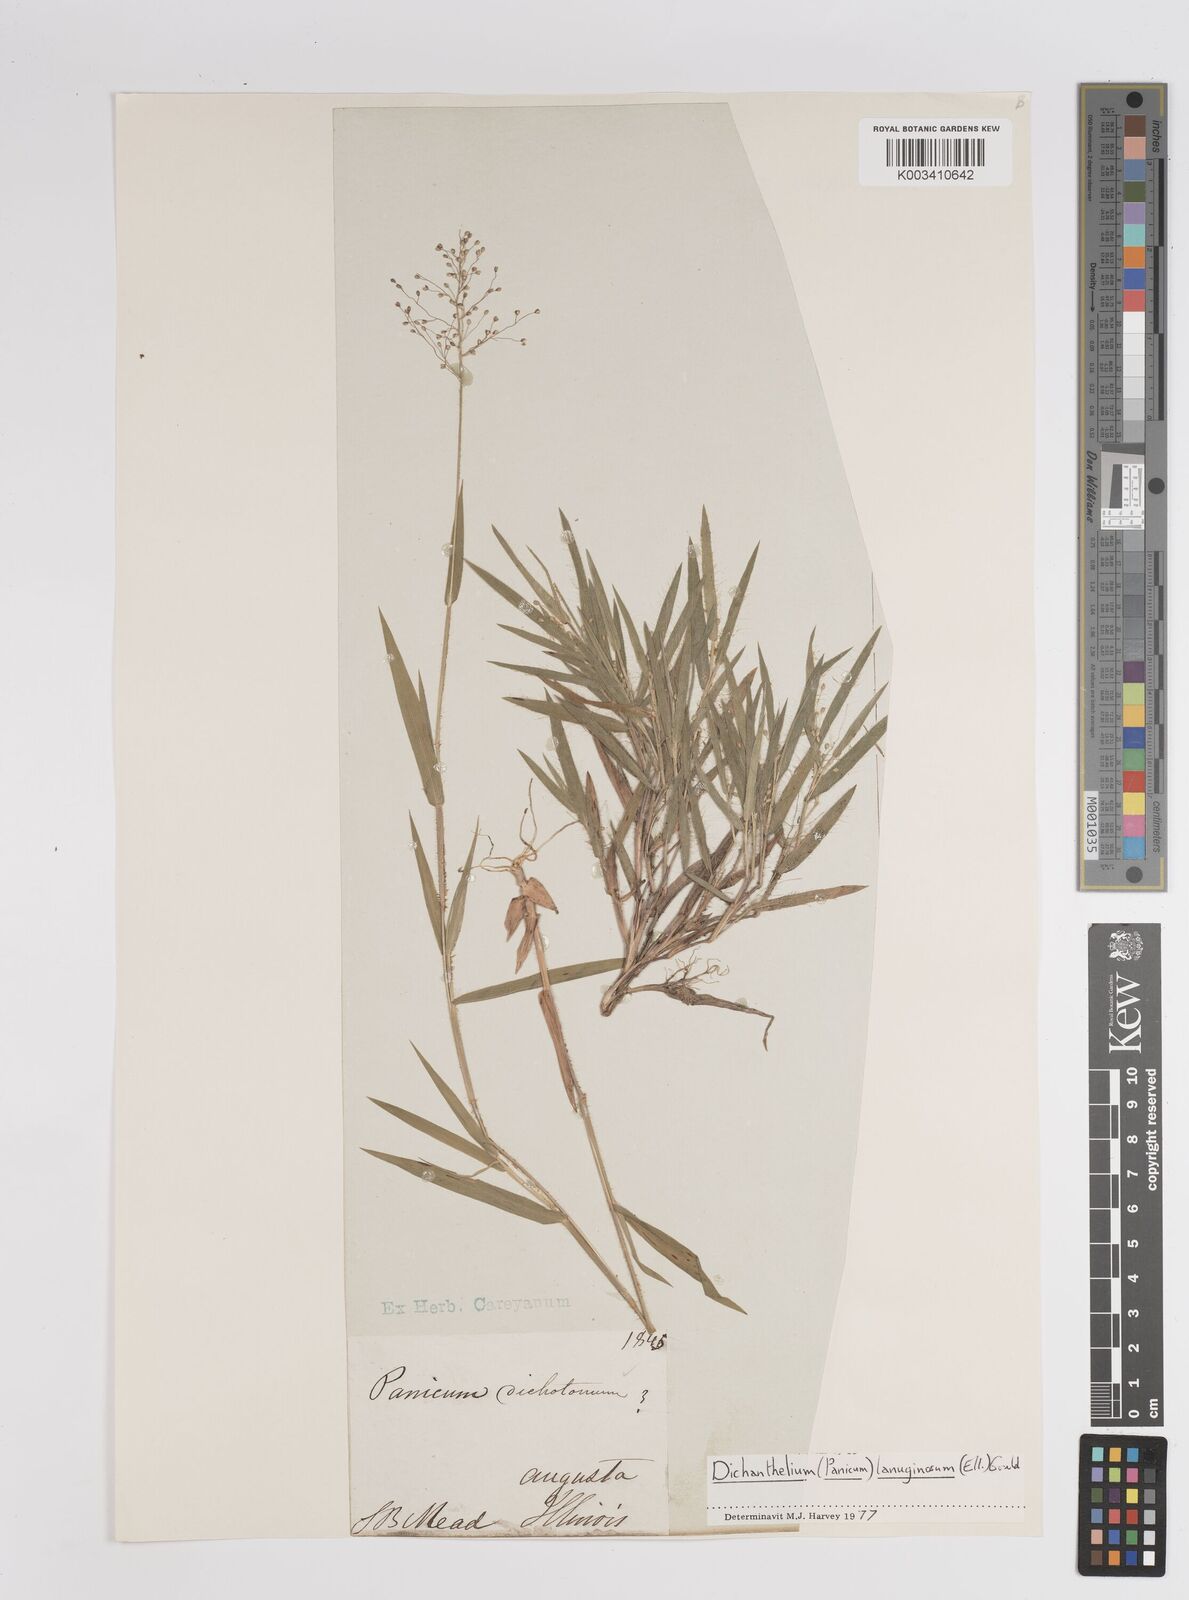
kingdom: Plantae
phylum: Tracheophyta
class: Liliopsida
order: Poales
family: Poaceae
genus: Dichanthelium
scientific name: Dichanthelium lanuginosum
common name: Woolly panicgrass
